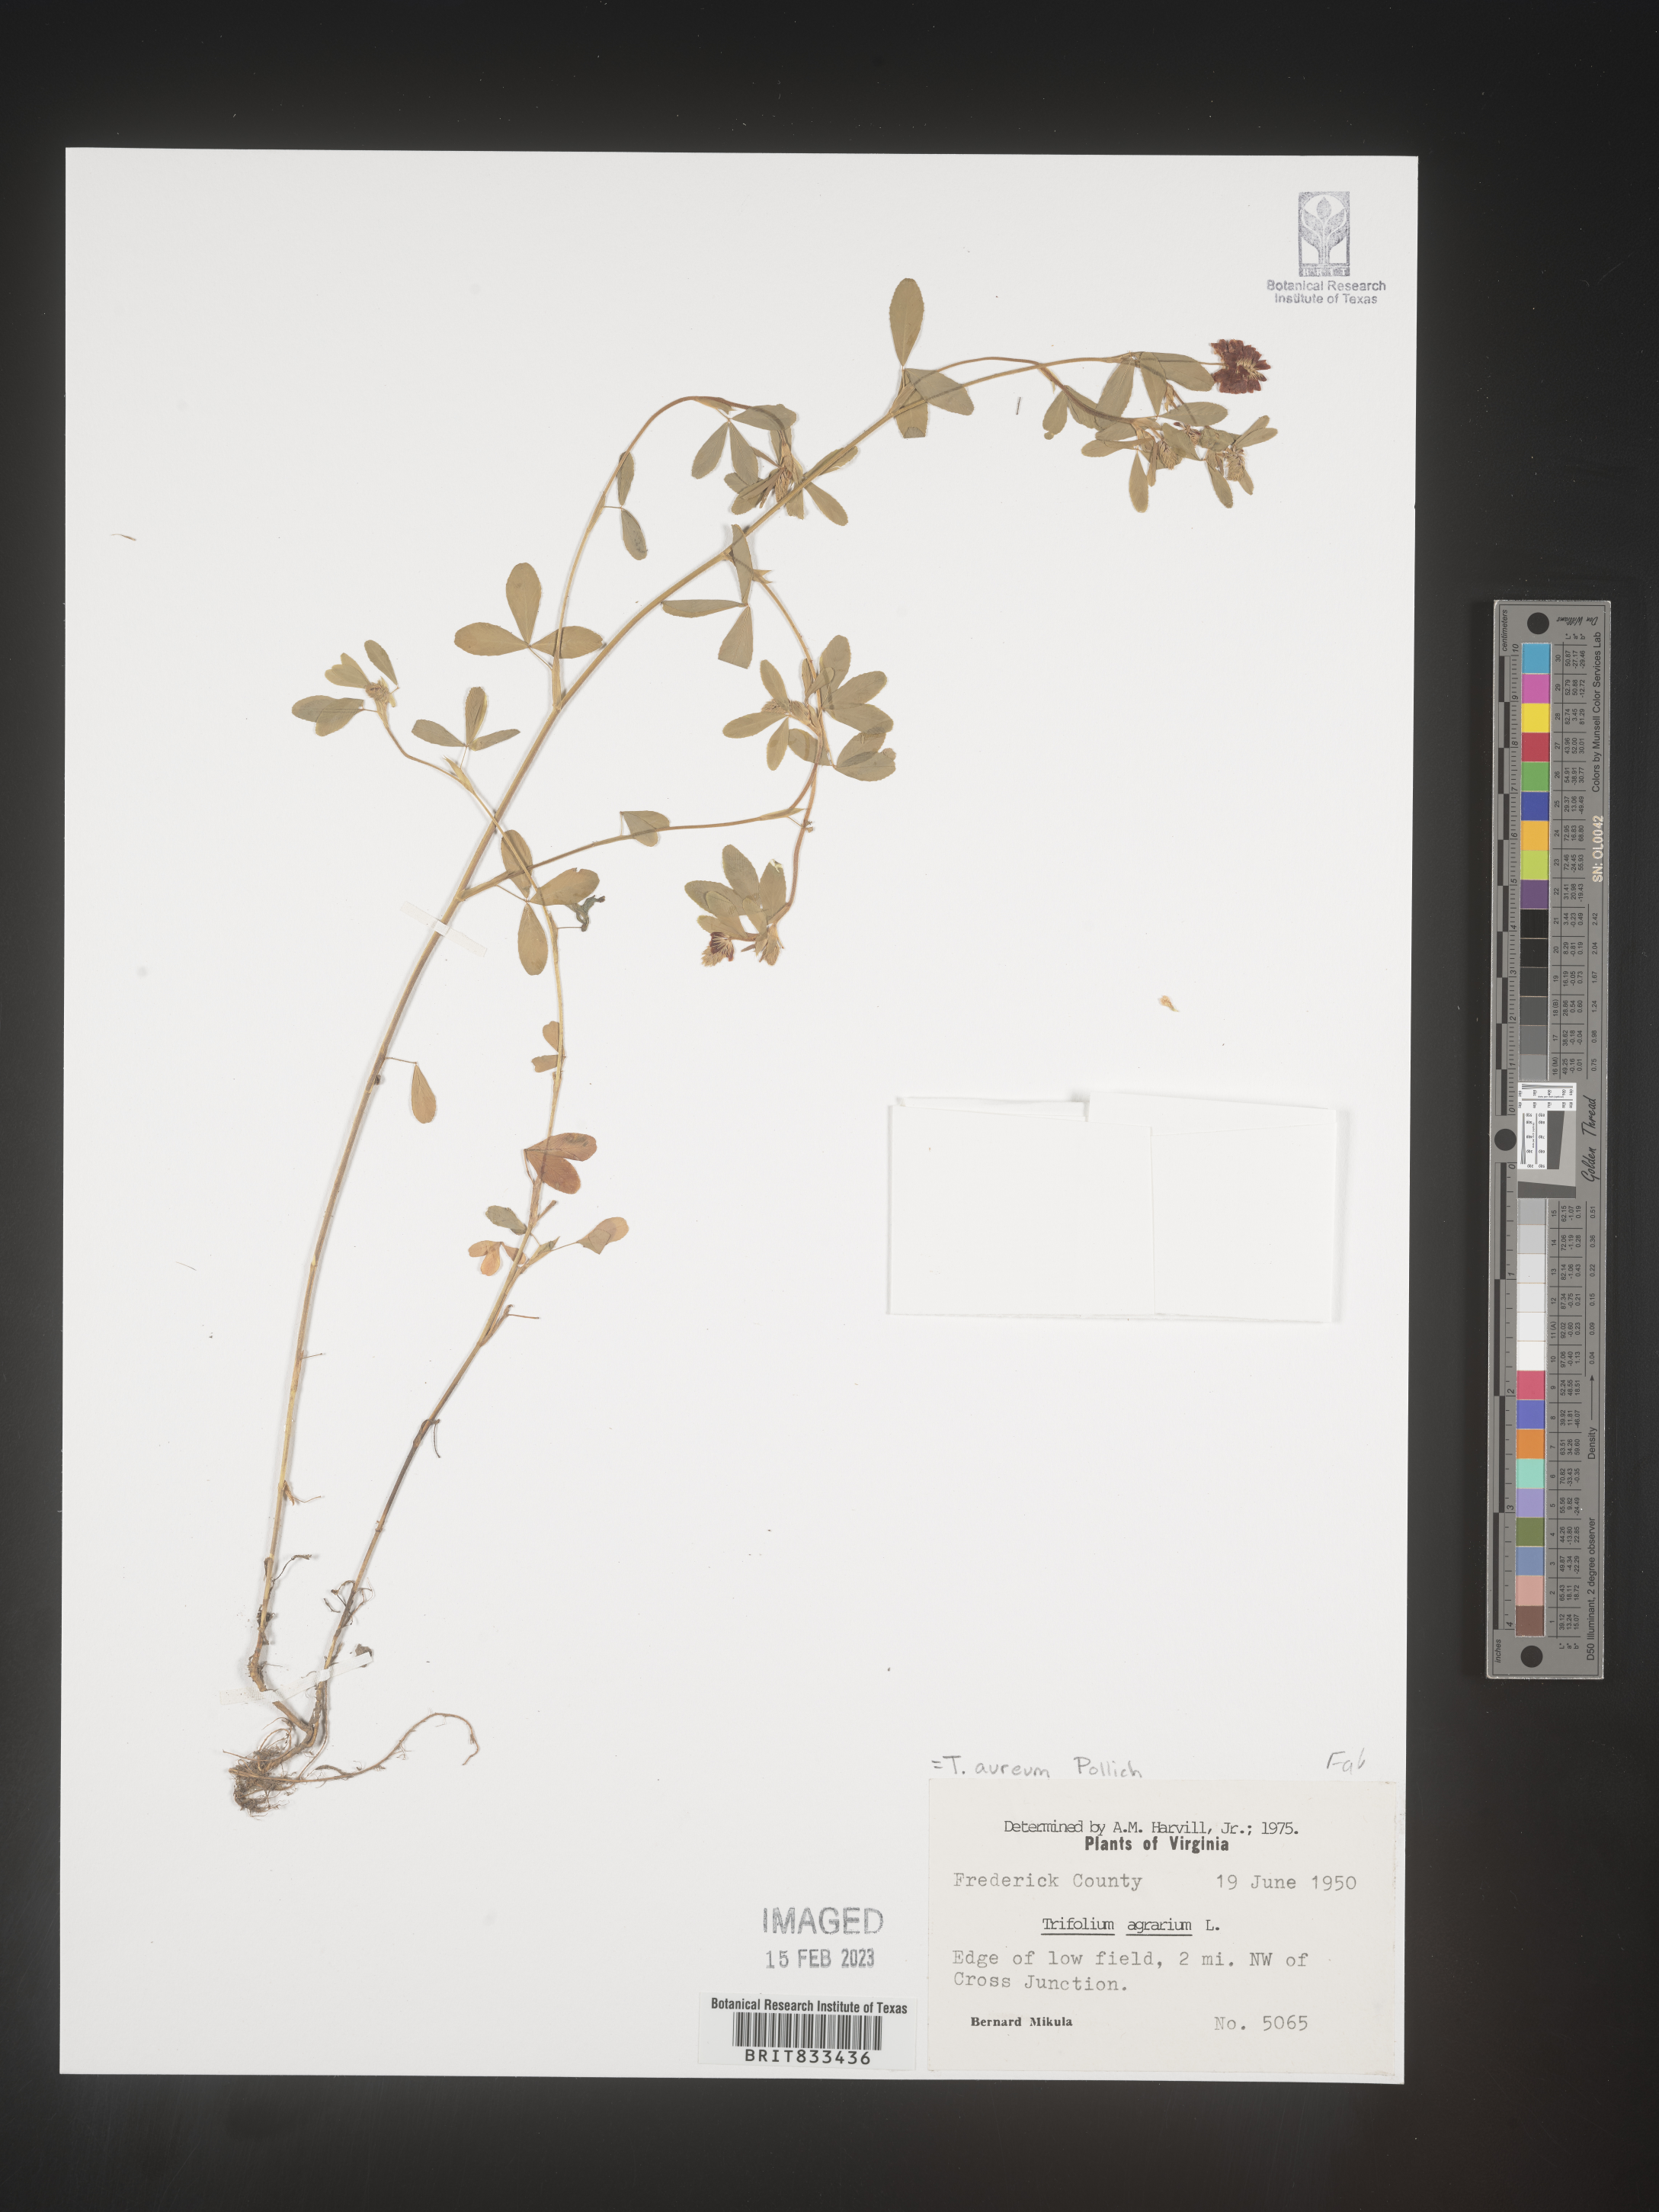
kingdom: Plantae
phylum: Tracheophyta
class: Magnoliopsida
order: Fabales
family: Fabaceae
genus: Trifolium
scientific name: Trifolium
